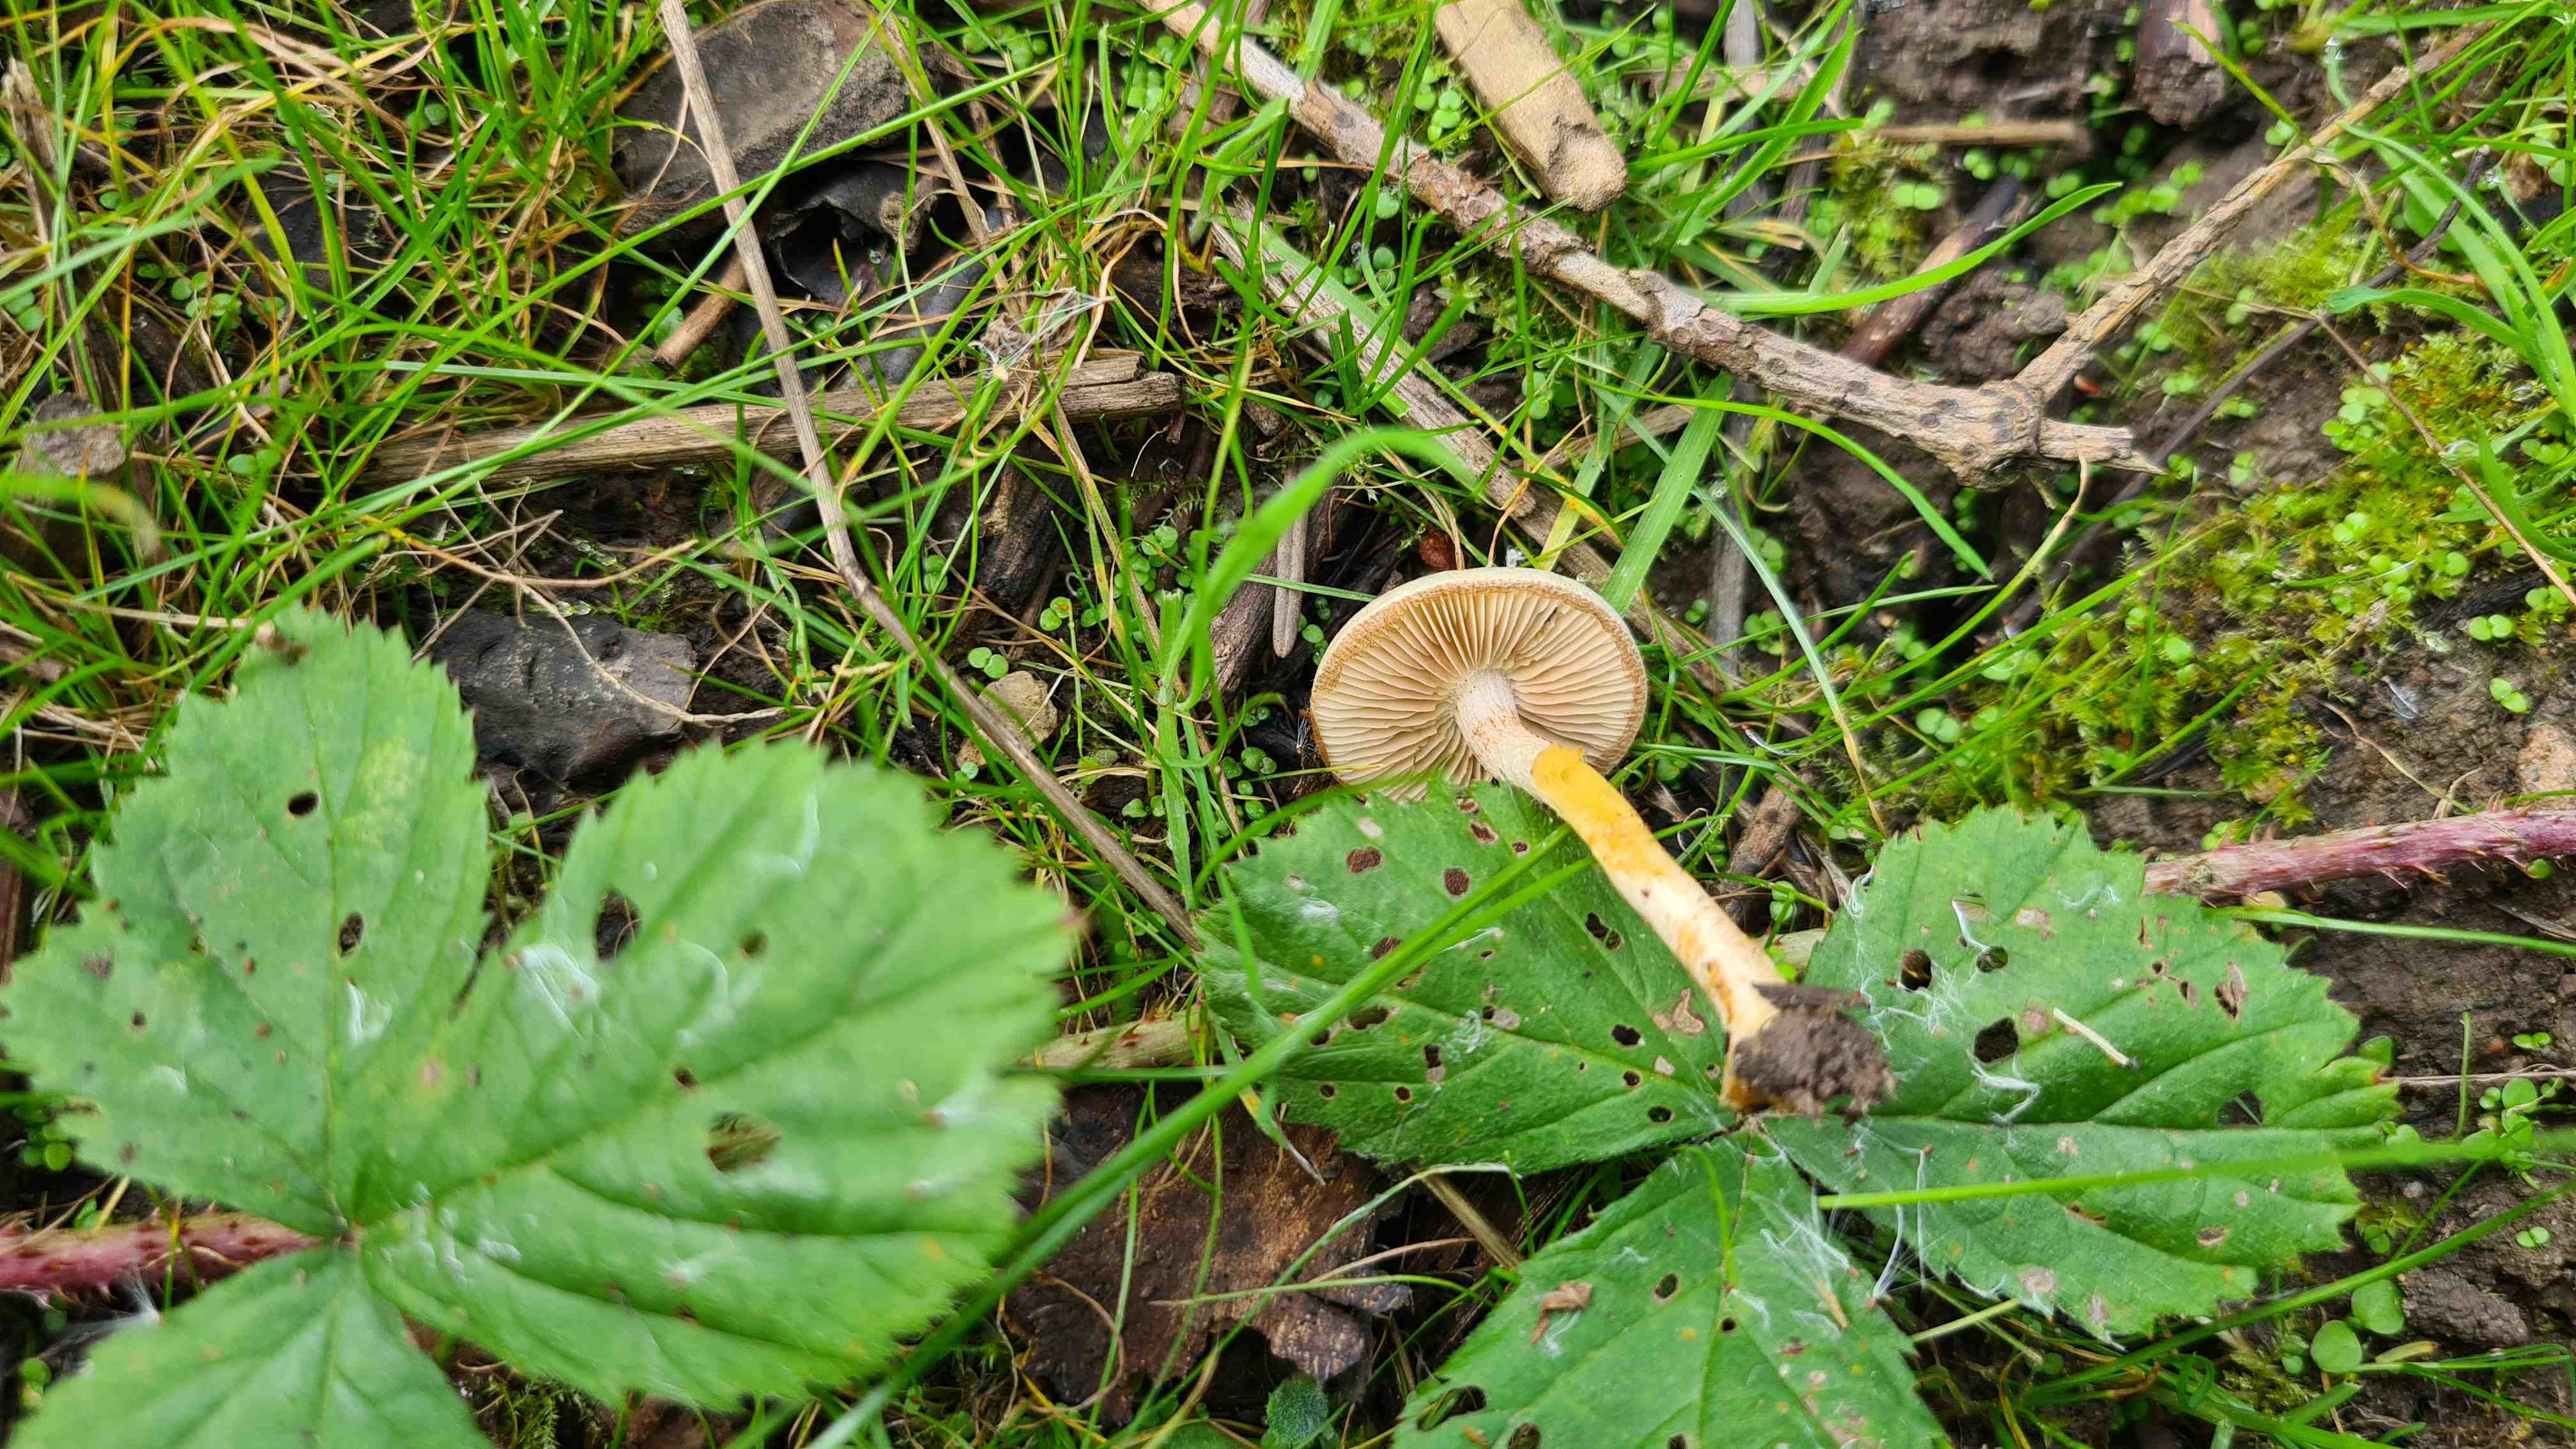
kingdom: Fungi
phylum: Basidiomycota
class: Agaricomycetes
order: Agaricales
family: Strophariaceae
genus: Pholiota
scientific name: Pholiota
